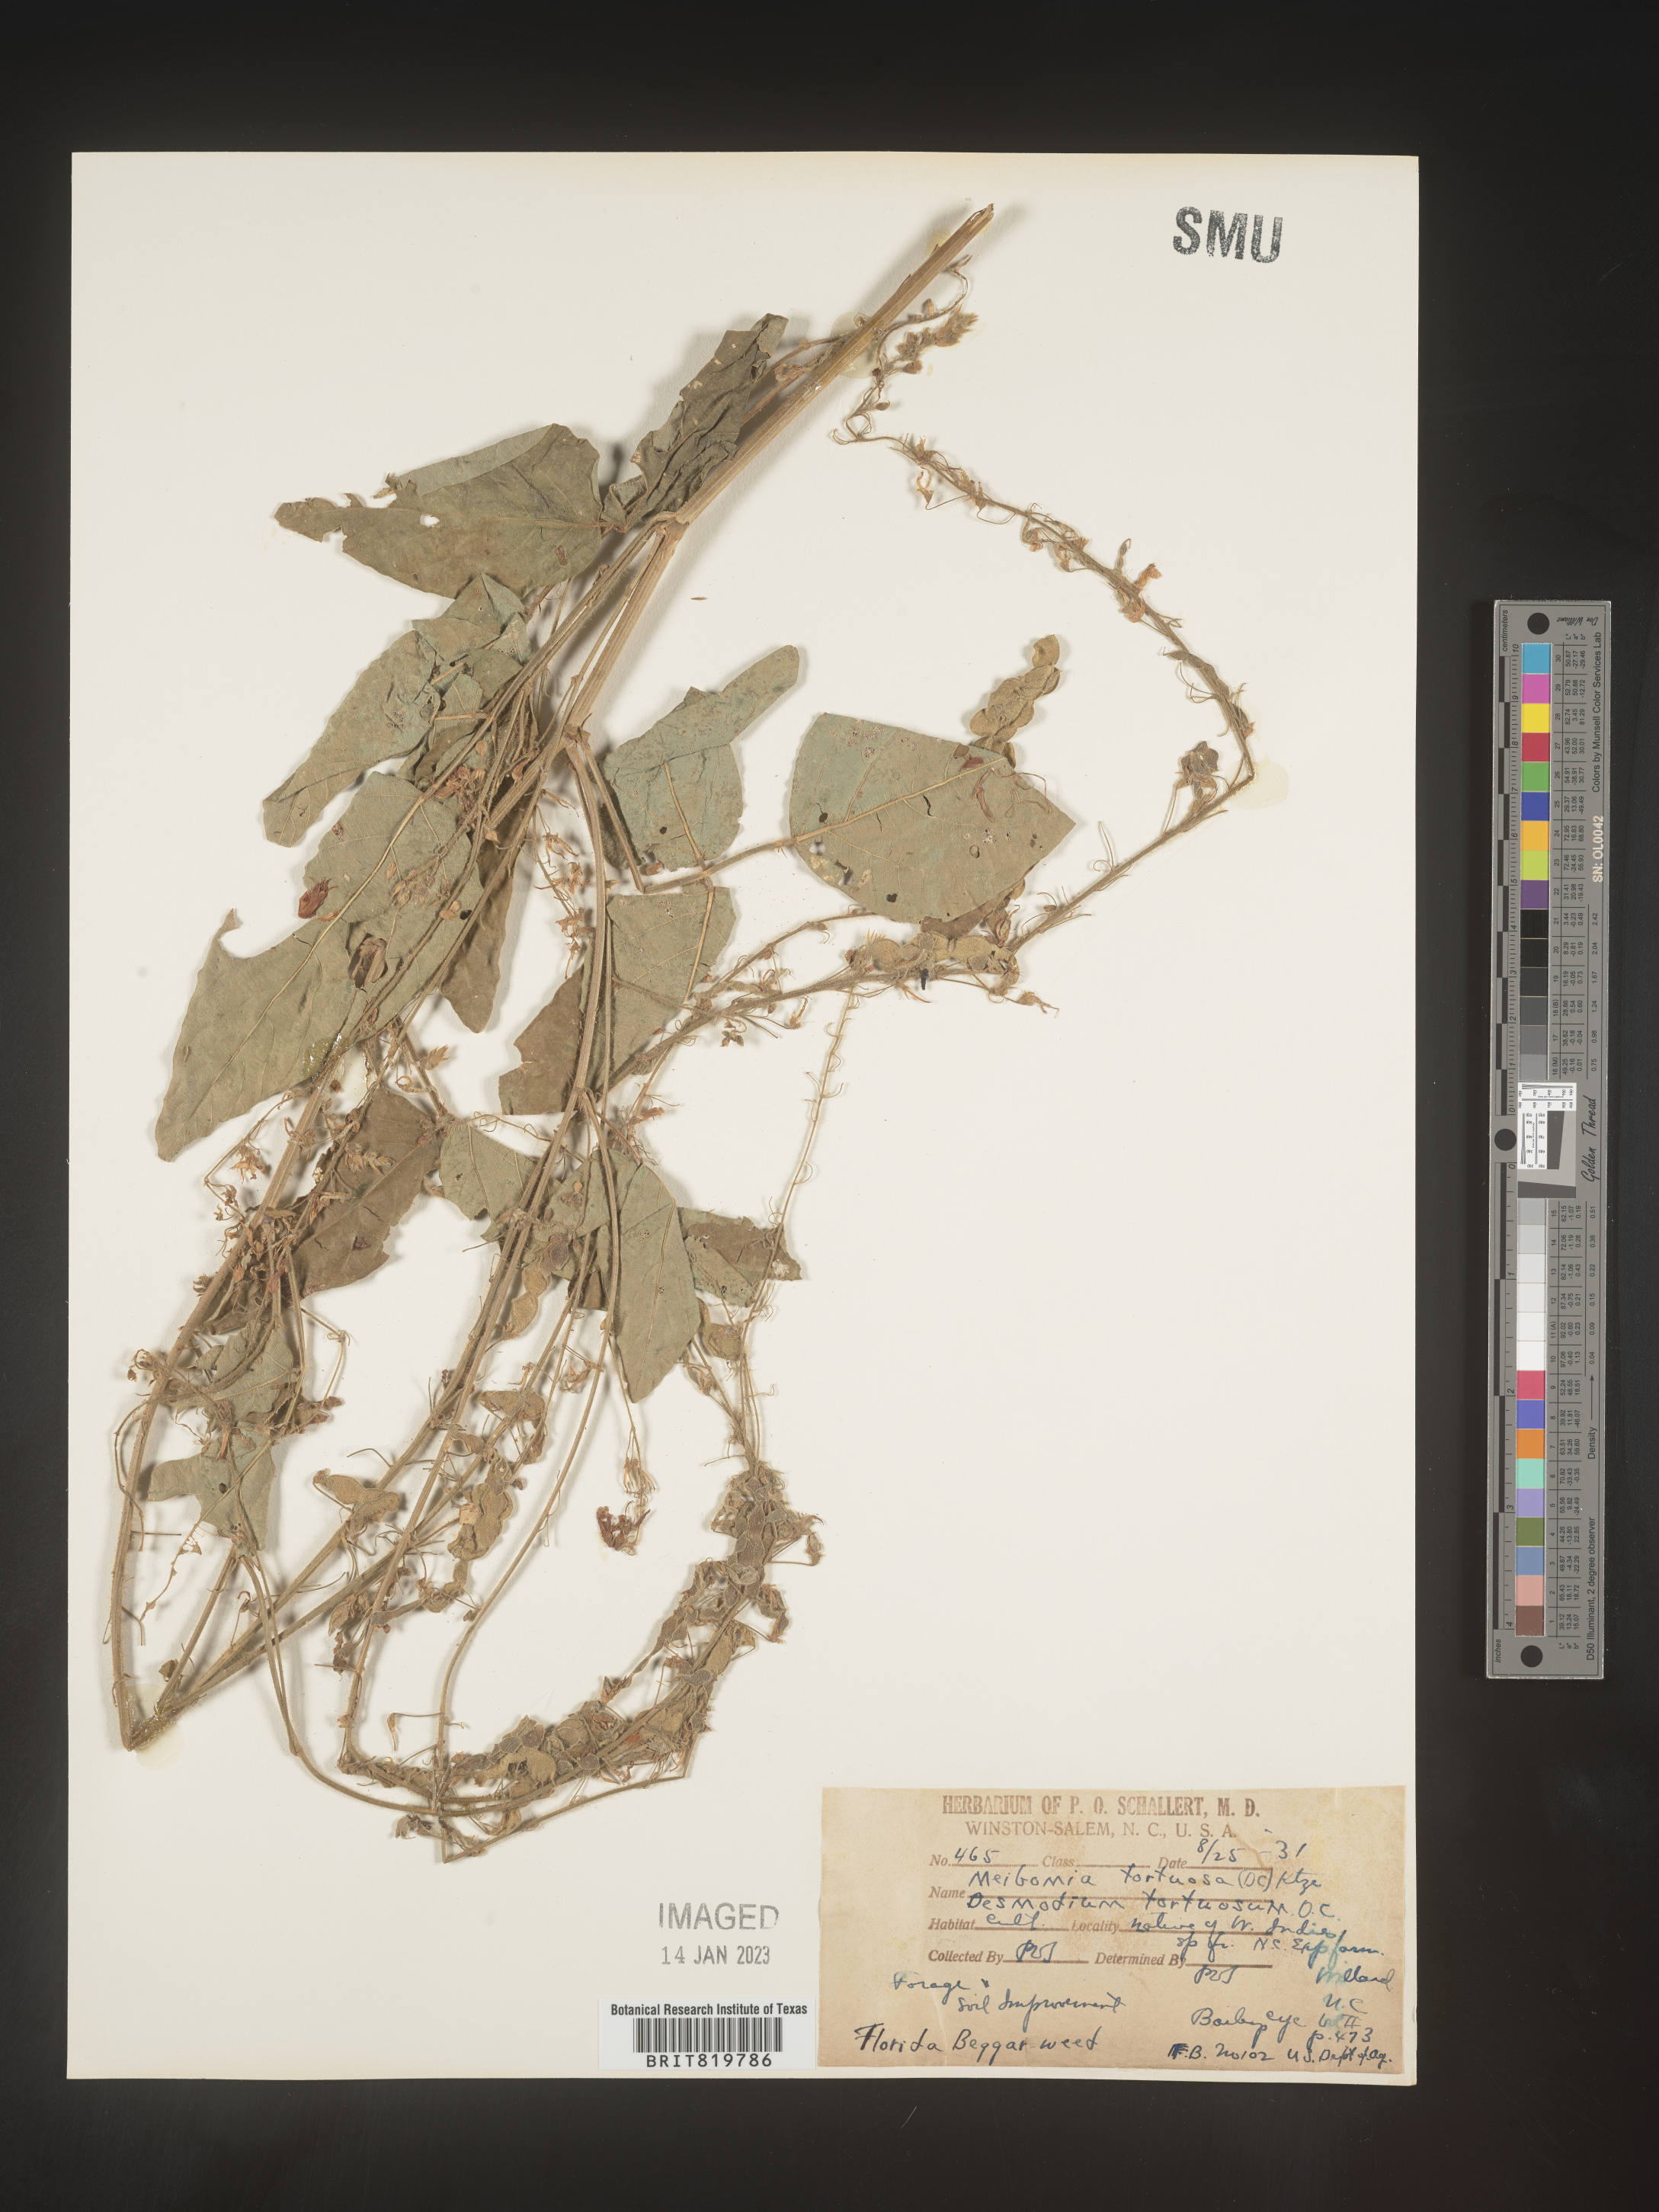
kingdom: Plantae
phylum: Tracheophyta
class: Magnoliopsida
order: Fabales
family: Fabaceae
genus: Desmodium
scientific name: Desmodium
